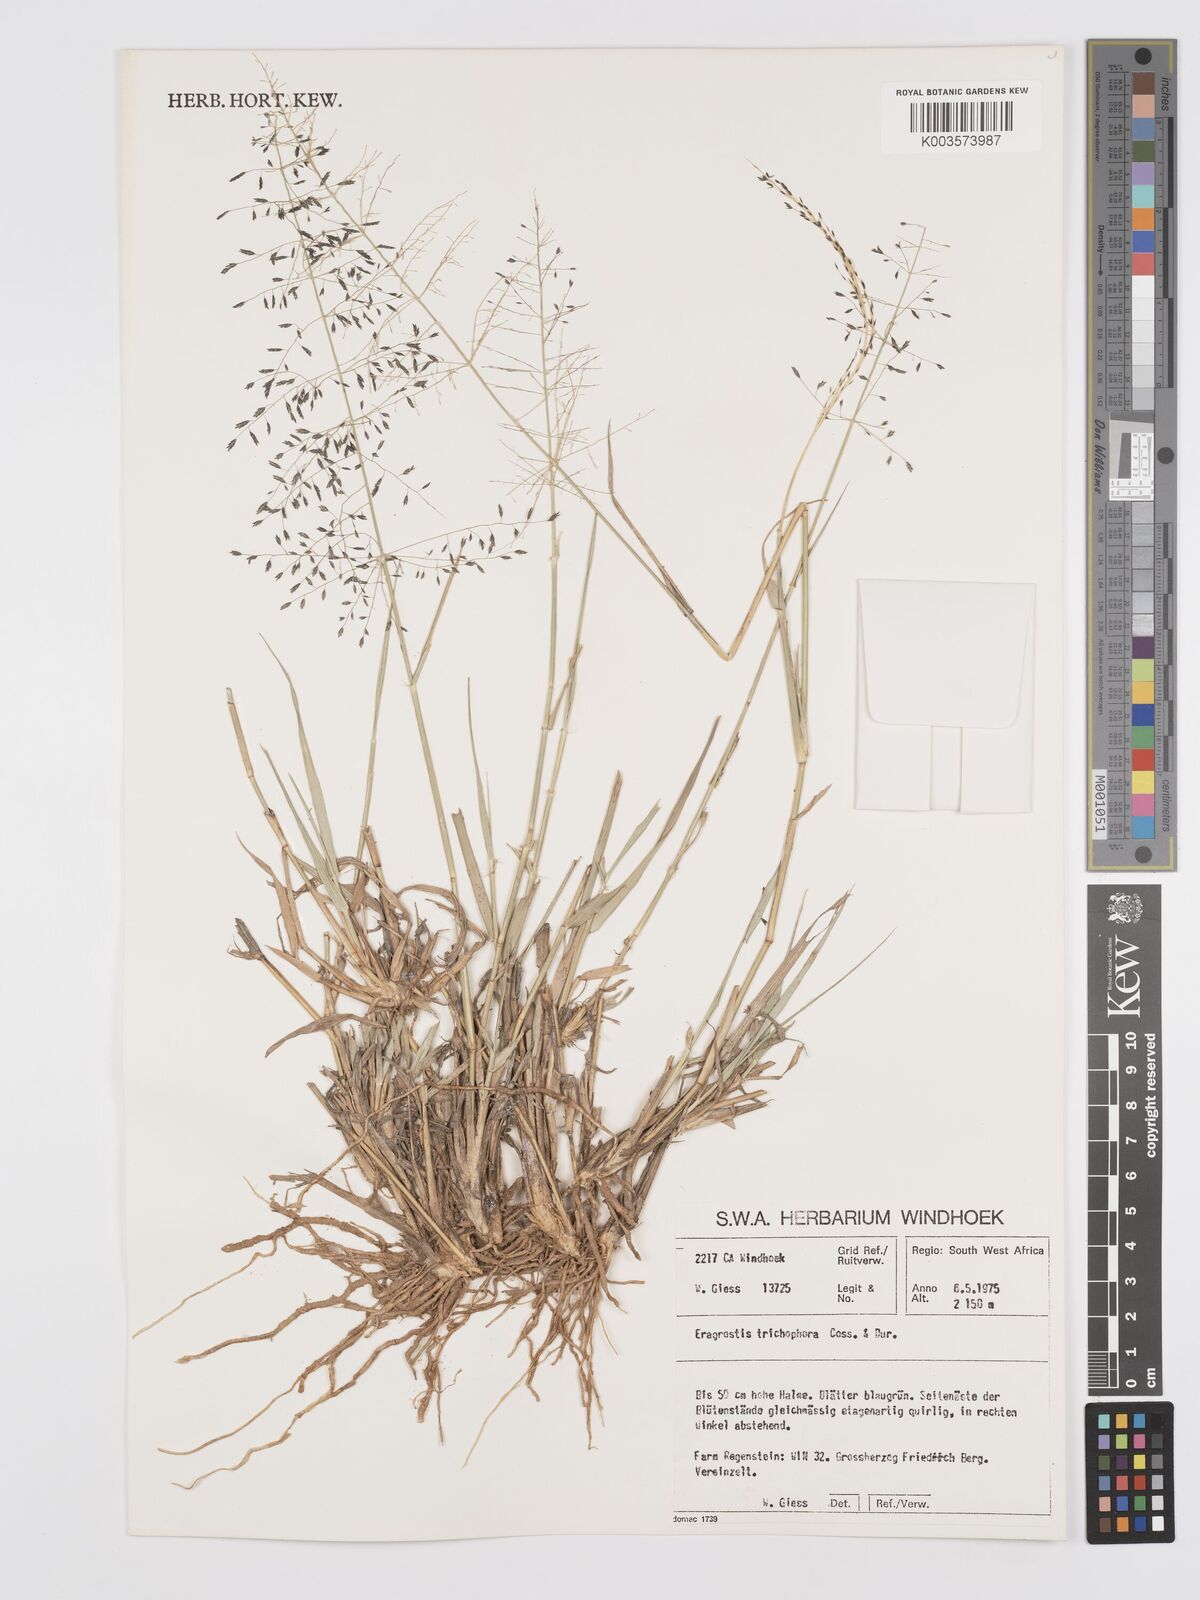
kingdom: Plantae
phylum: Tracheophyta
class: Liliopsida
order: Poales
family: Poaceae
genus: Eragrostis
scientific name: Eragrostis cylindriflora
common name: Cylinderflower lovegrass
